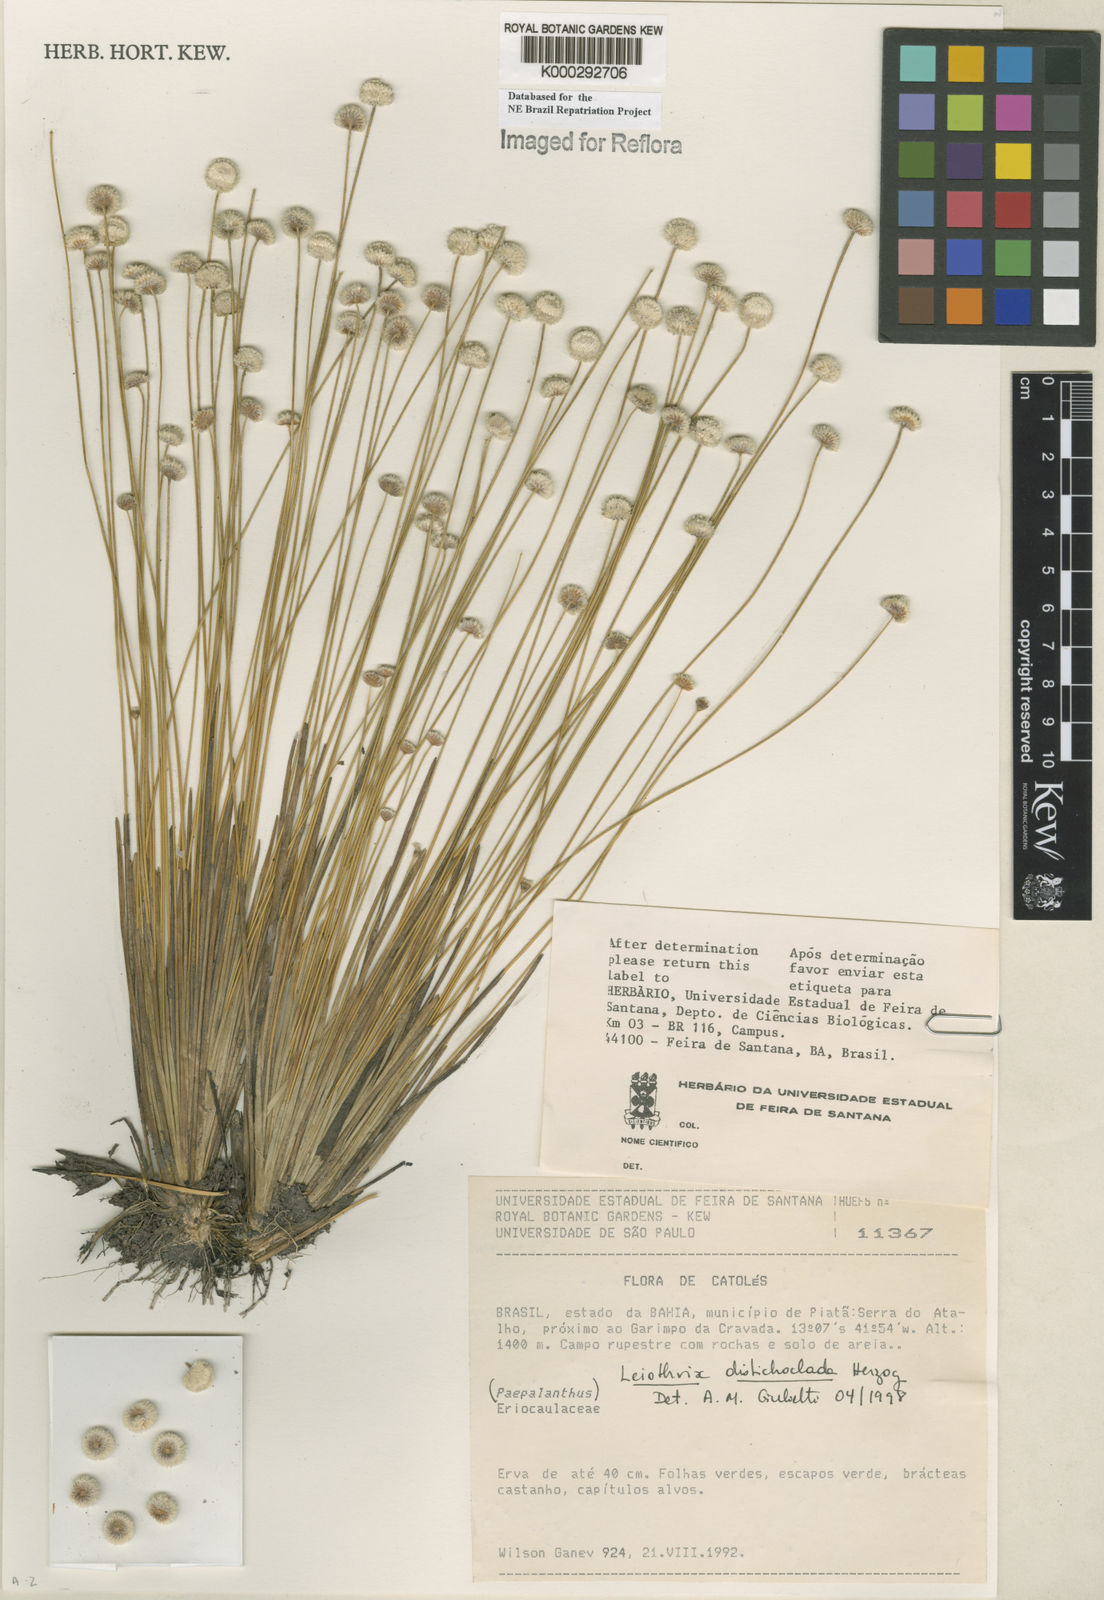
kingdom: Plantae
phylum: Tracheophyta
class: Liliopsida
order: Poales
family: Eriocaulaceae
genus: Leiothrix
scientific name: Leiothrix distichoclada
